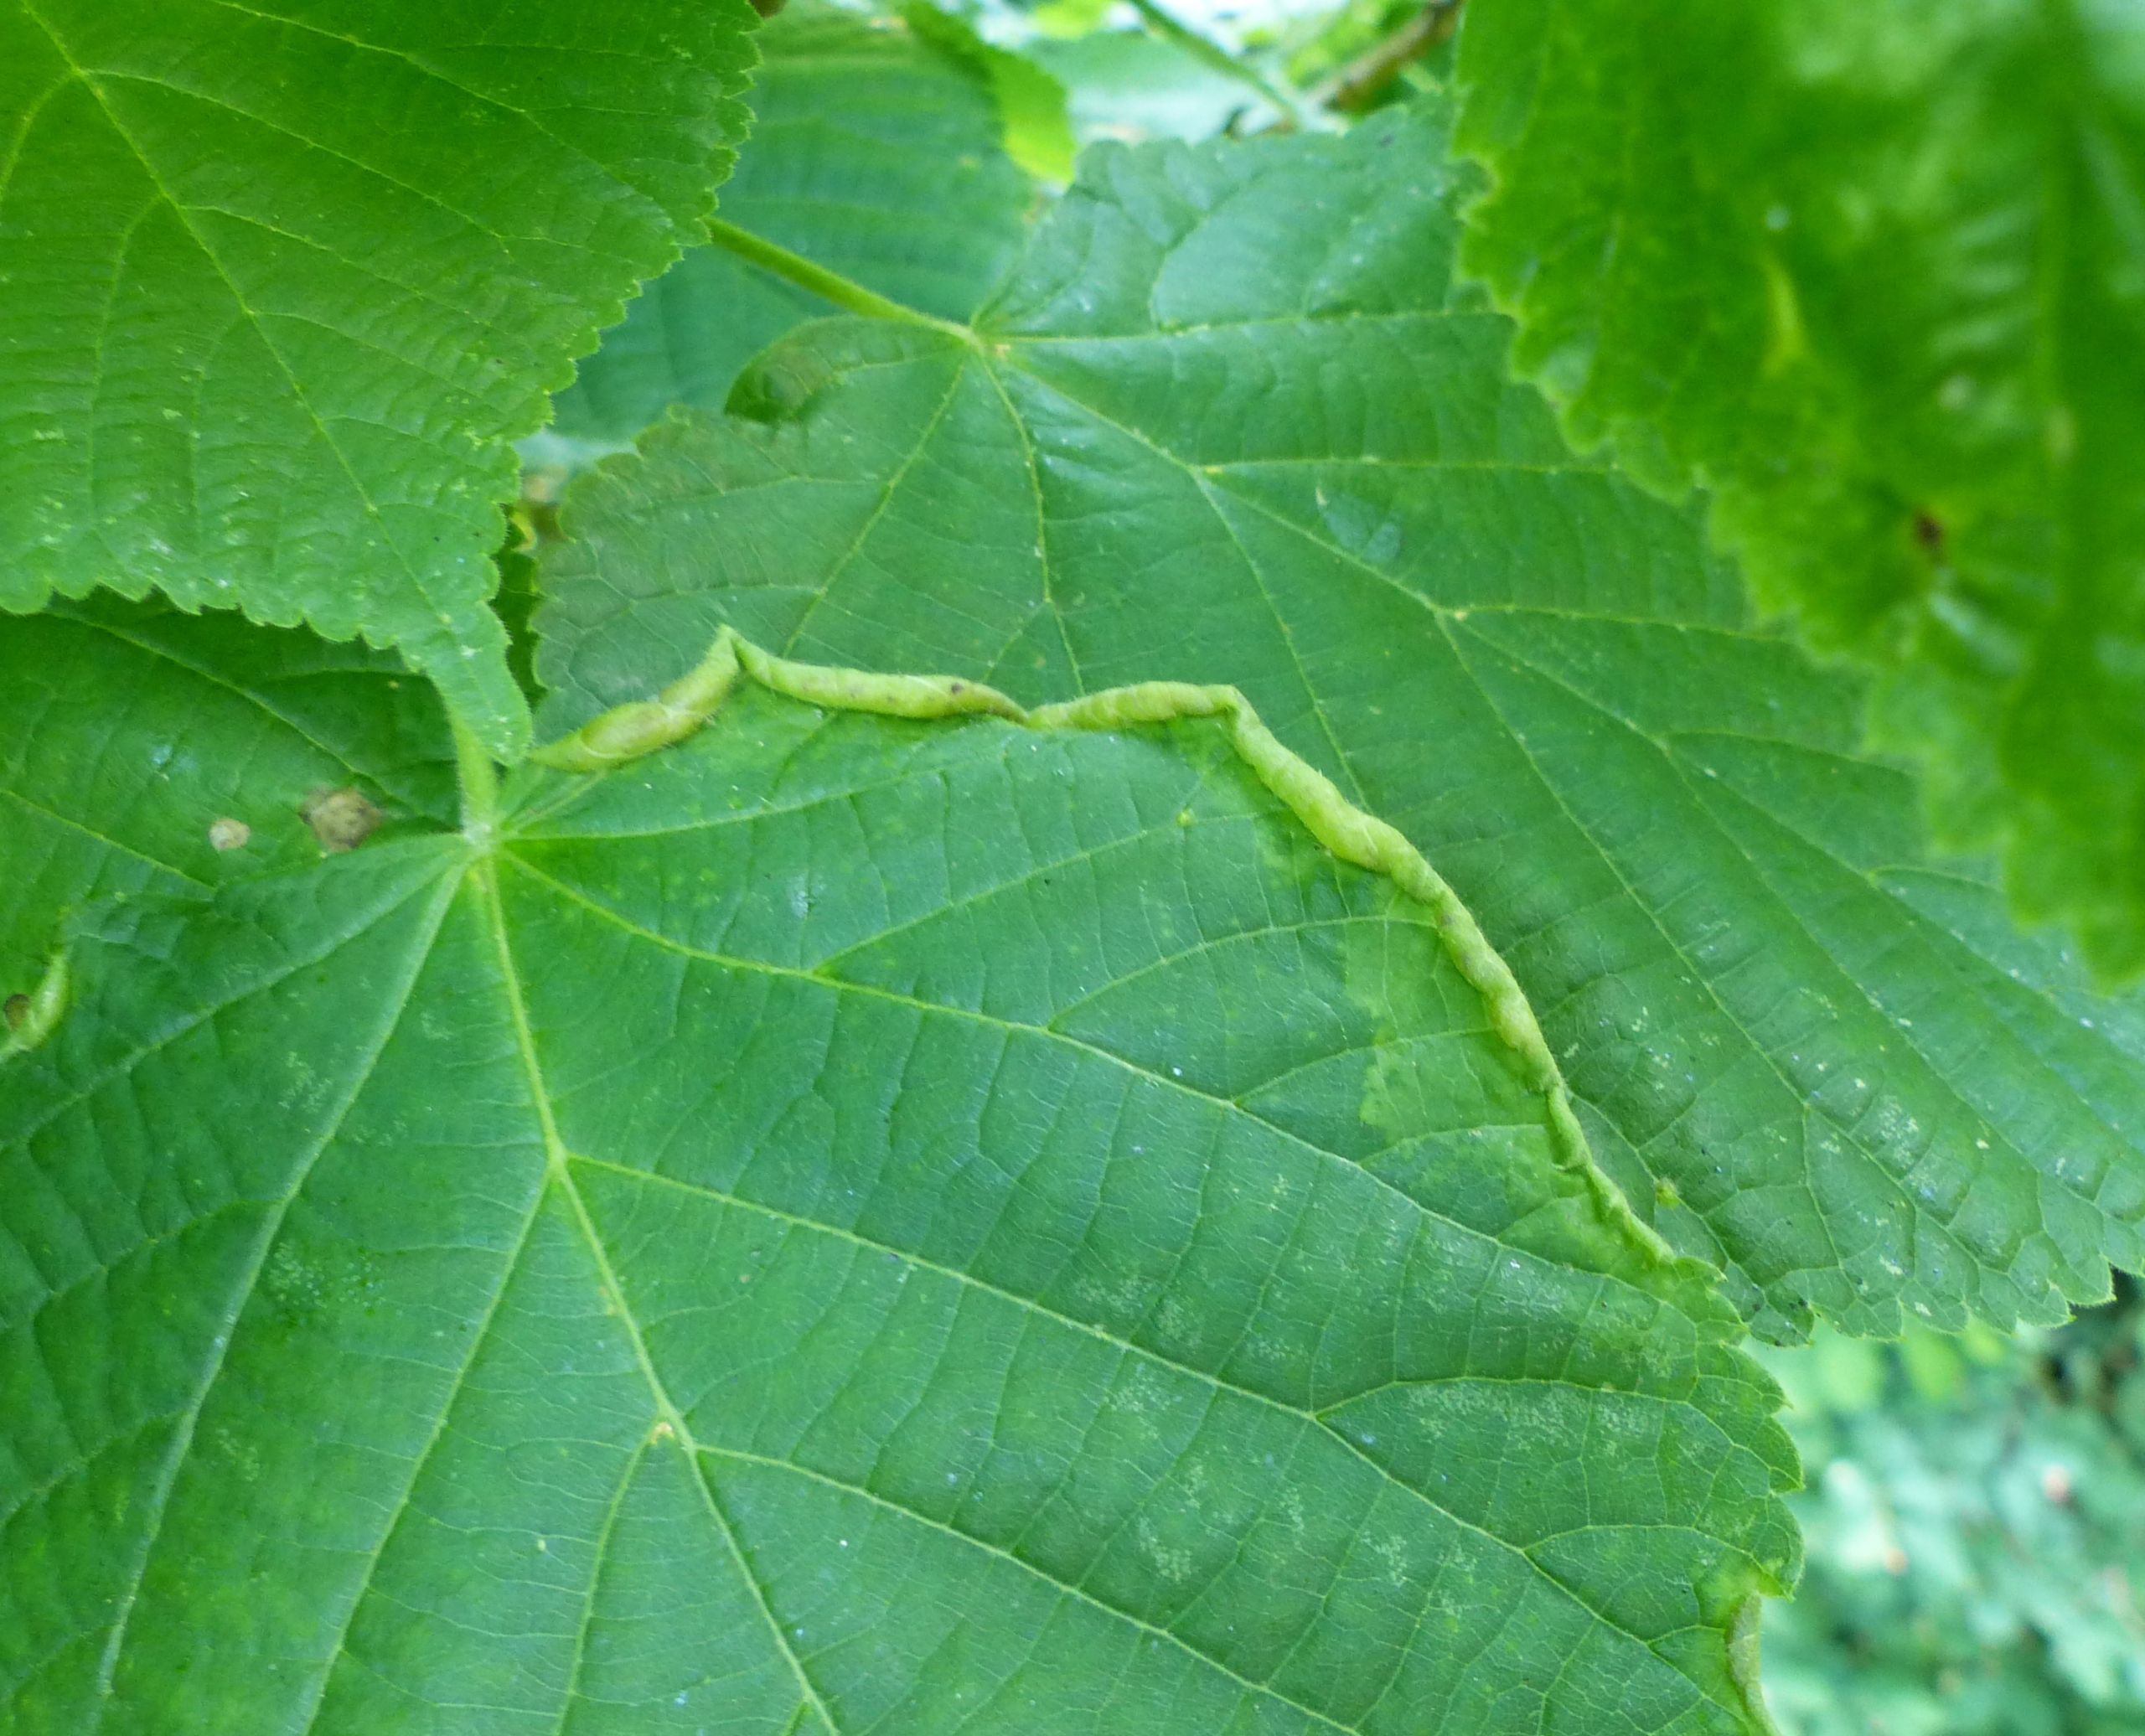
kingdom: Animalia
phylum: Arthropoda
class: Insecta
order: Diptera
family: Cecidomyiidae
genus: Dasineura
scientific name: Dasineura tiliae
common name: Linderullegalmyg
